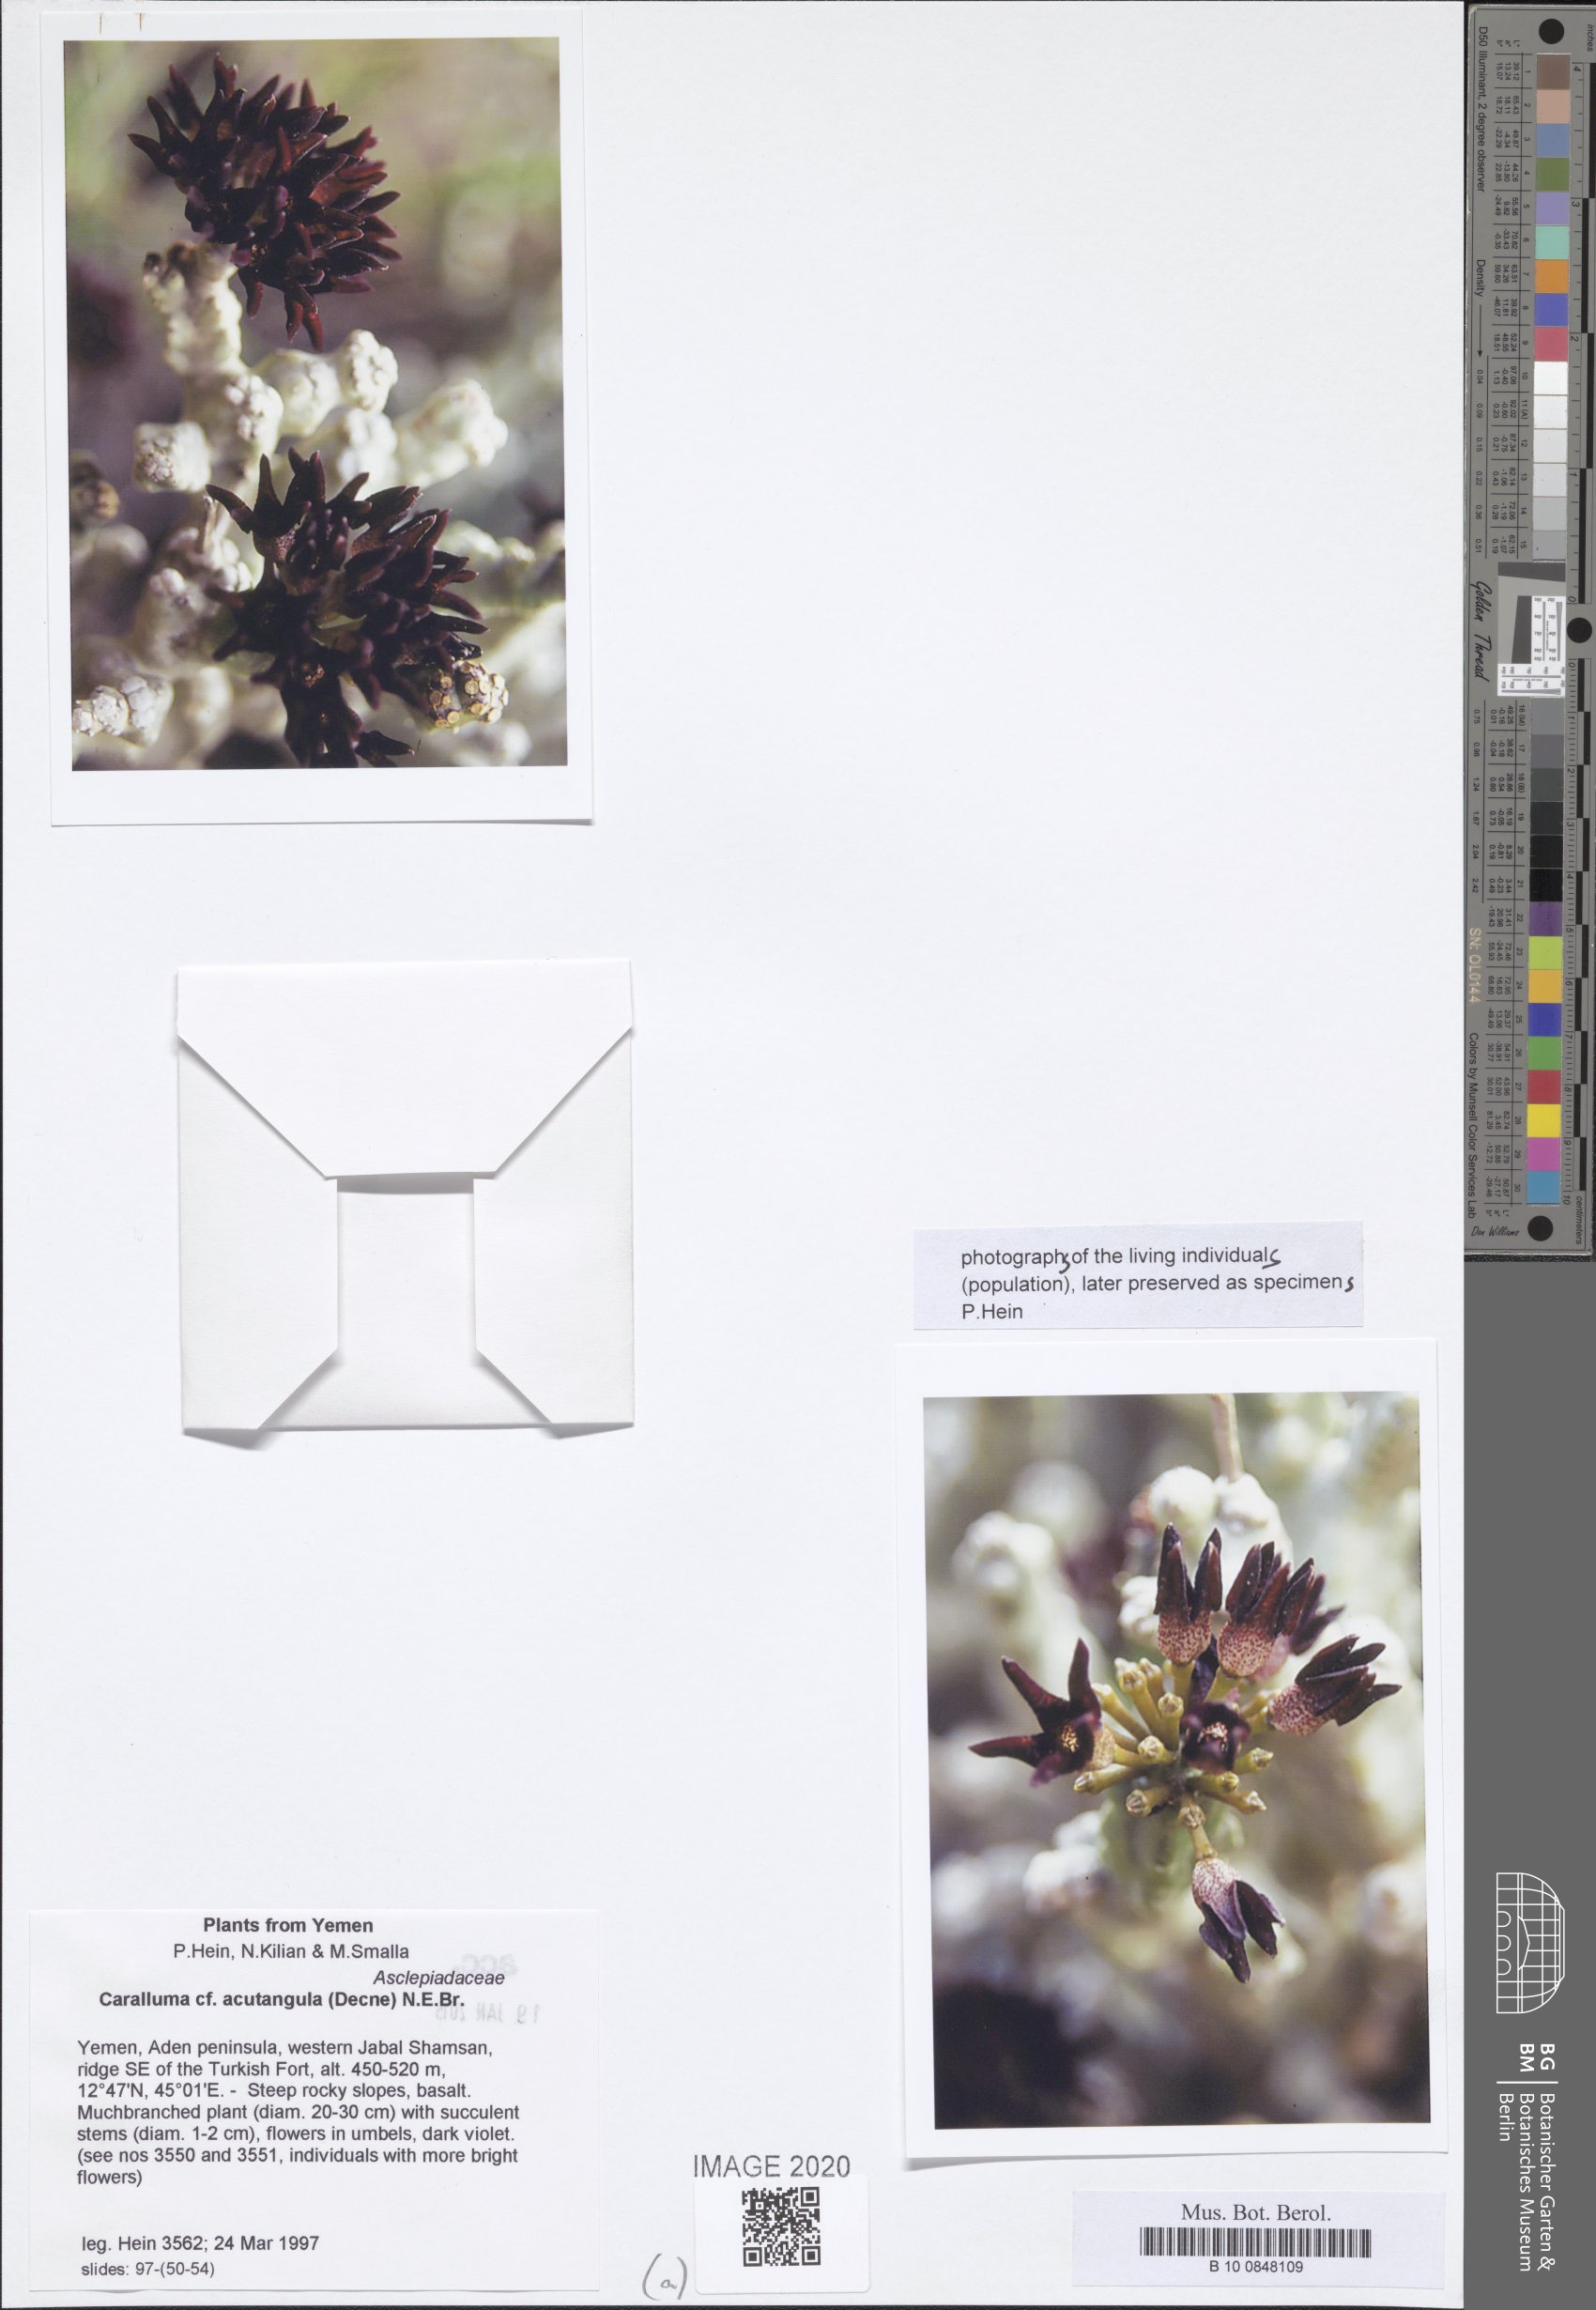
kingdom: Plantae
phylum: Tracheophyta
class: Magnoliopsida
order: Gentianales
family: Apocynaceae
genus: Ceropegia
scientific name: Ceropegia adenensis
